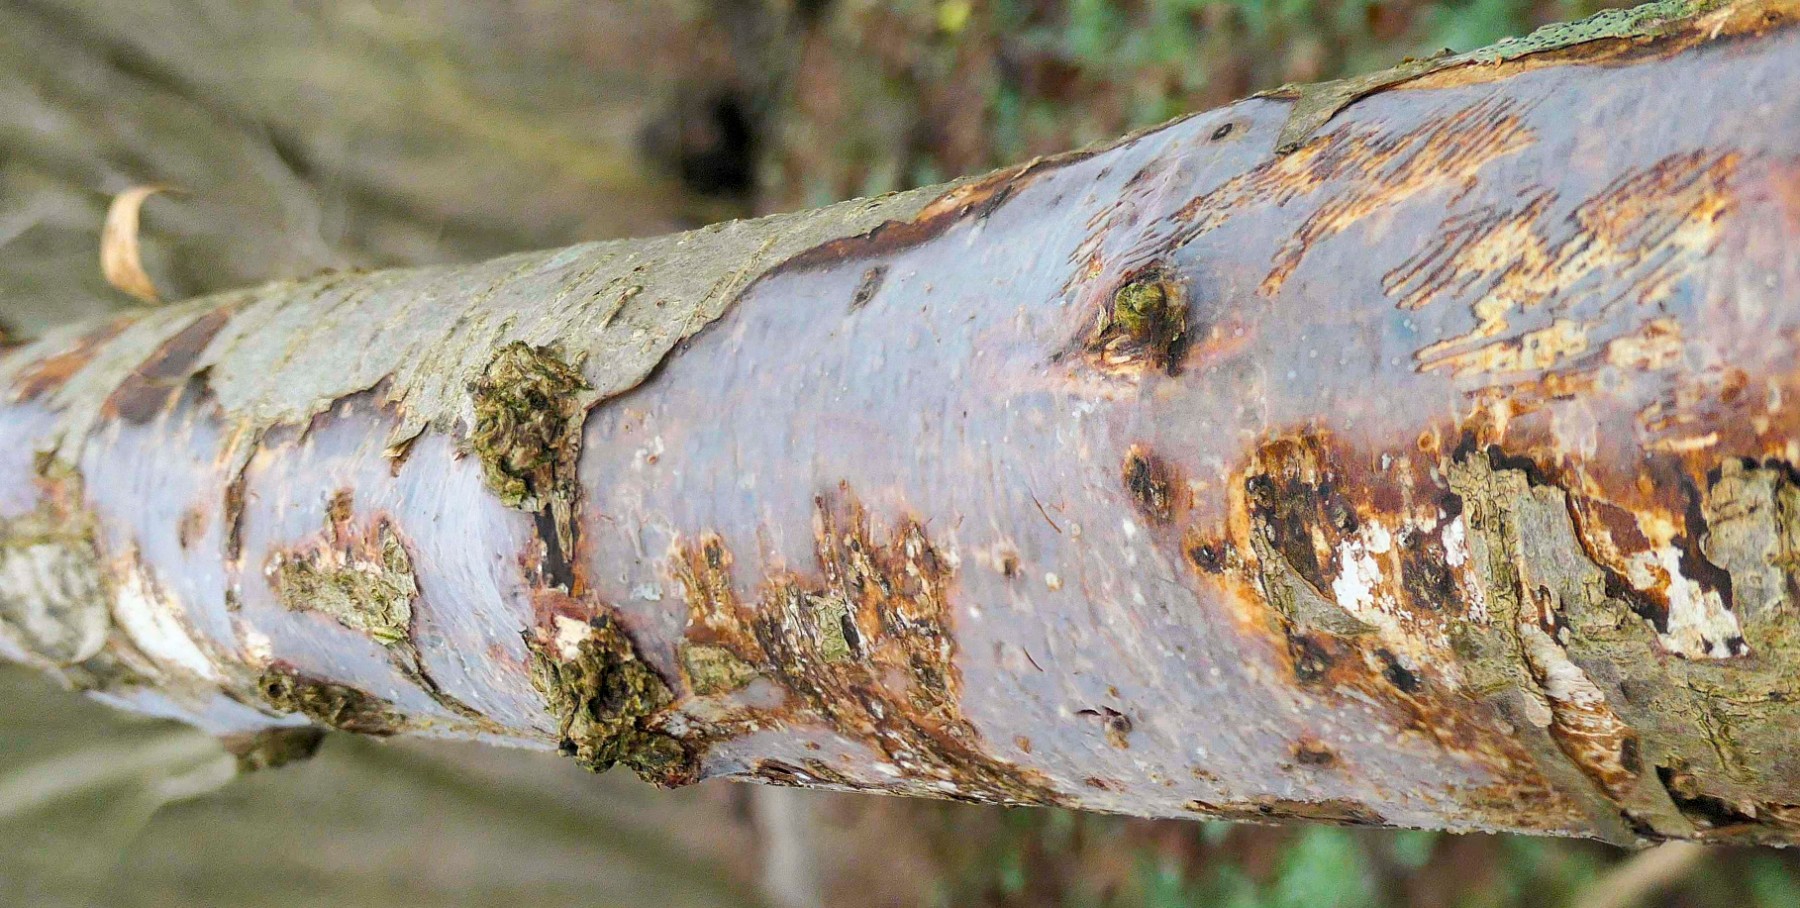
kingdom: Fungi
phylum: Basidiomycota
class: Agaricomycetes
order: Corticiales
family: Vuilleminiaceae
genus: Vuilleminia
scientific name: Vuilleminia coryli
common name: hassel-barksprænger
